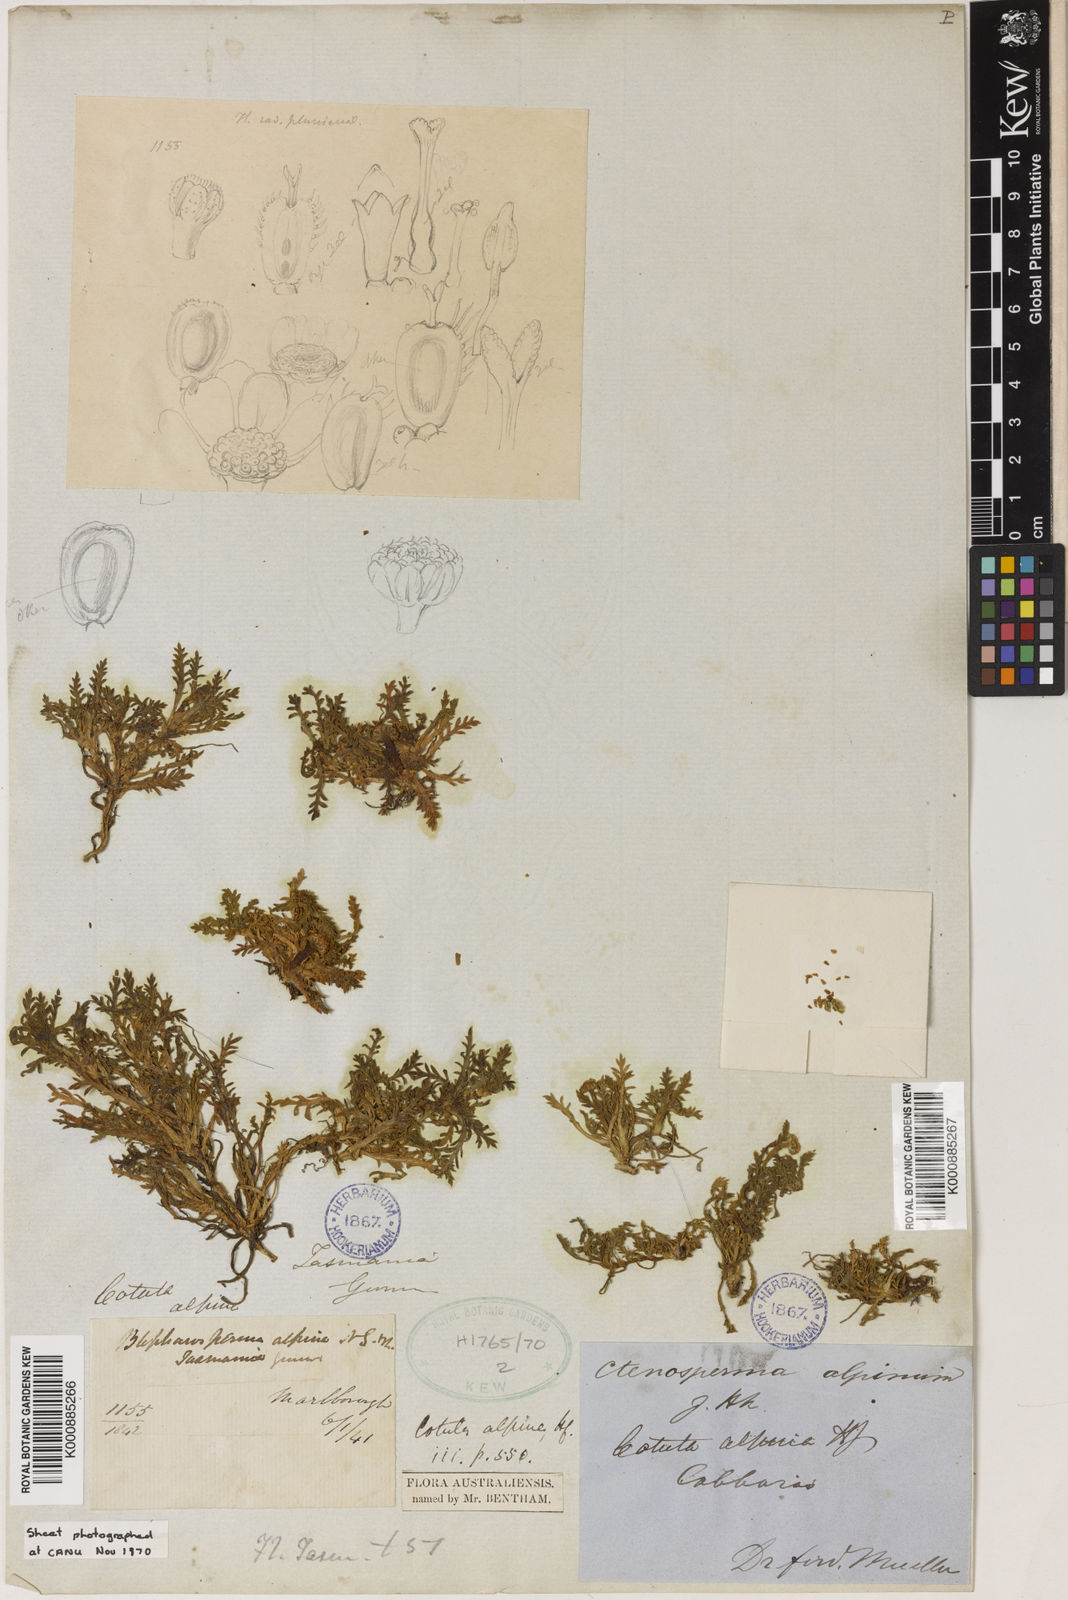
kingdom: Plantae
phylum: Tracheophyta
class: Magnoliopsida
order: Asterales
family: Asteraceae
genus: Cotula
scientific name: Cotula alpina
